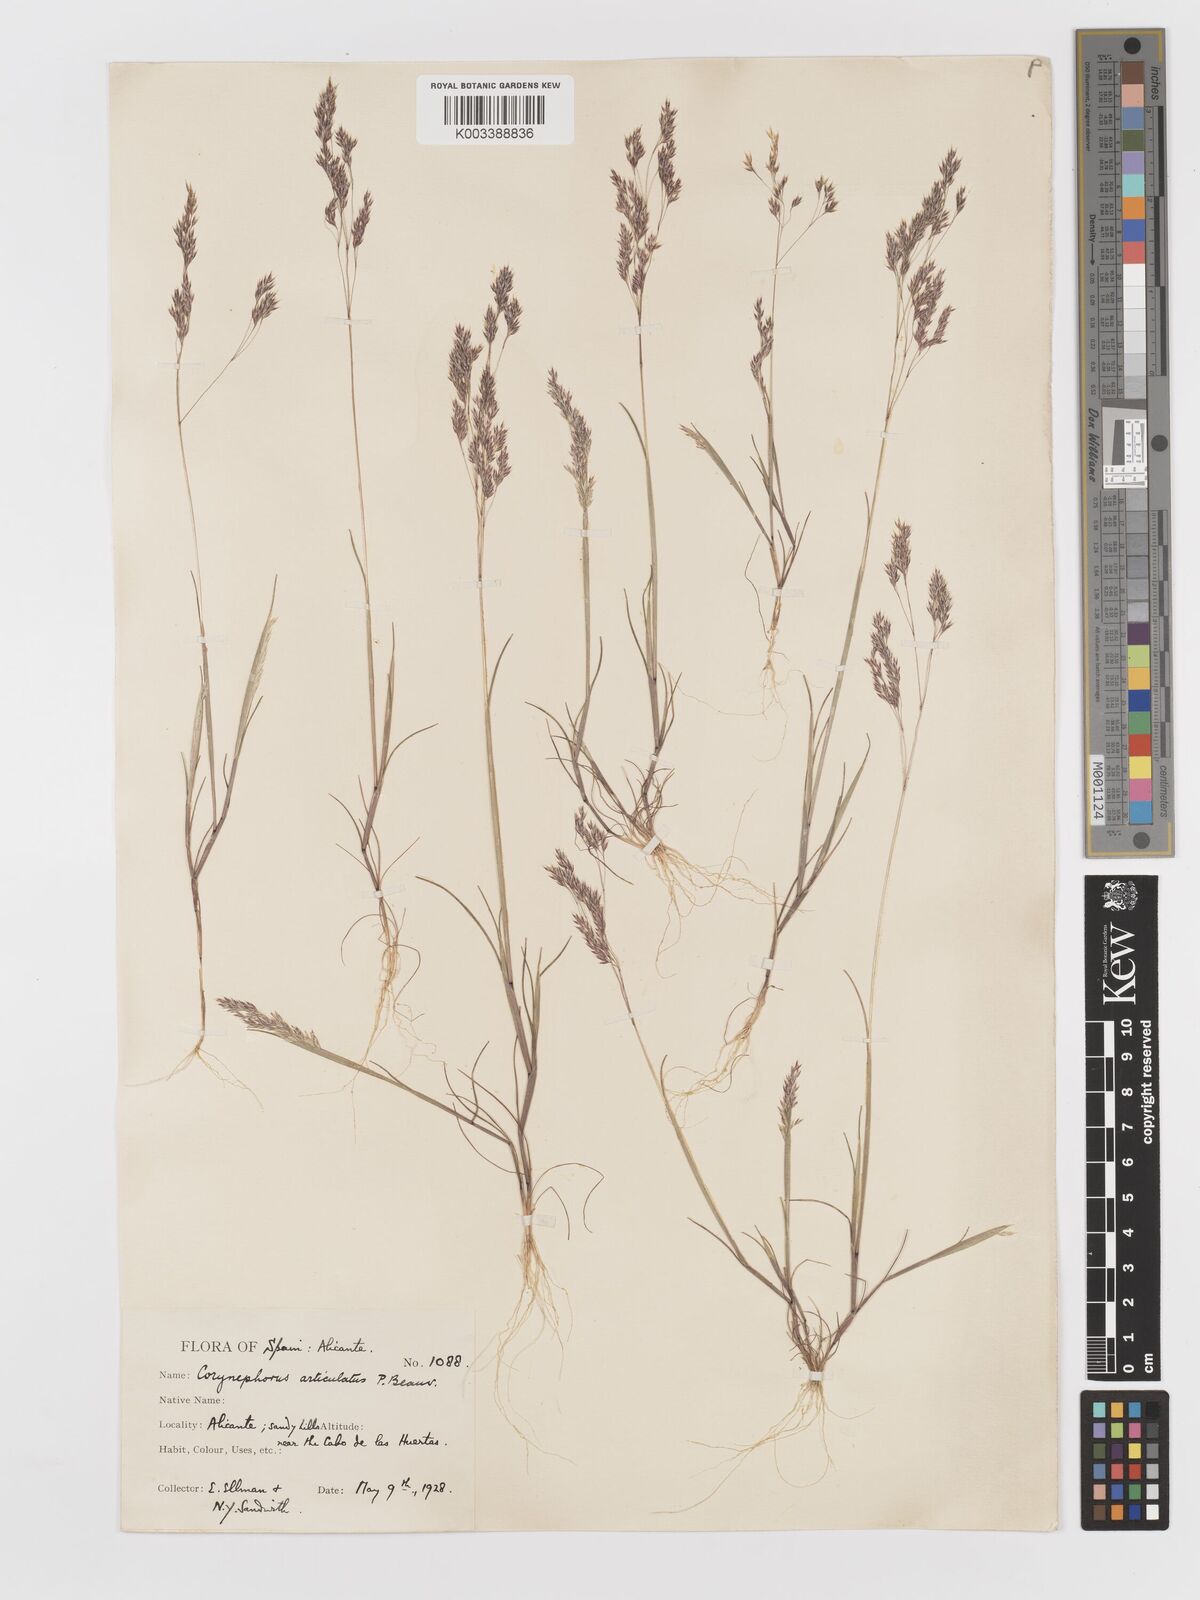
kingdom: Plantae
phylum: Tracheophyta
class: Liliopsida
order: Poales
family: Poaceae
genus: Corynephorus
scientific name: Corynephorus divaricatus
